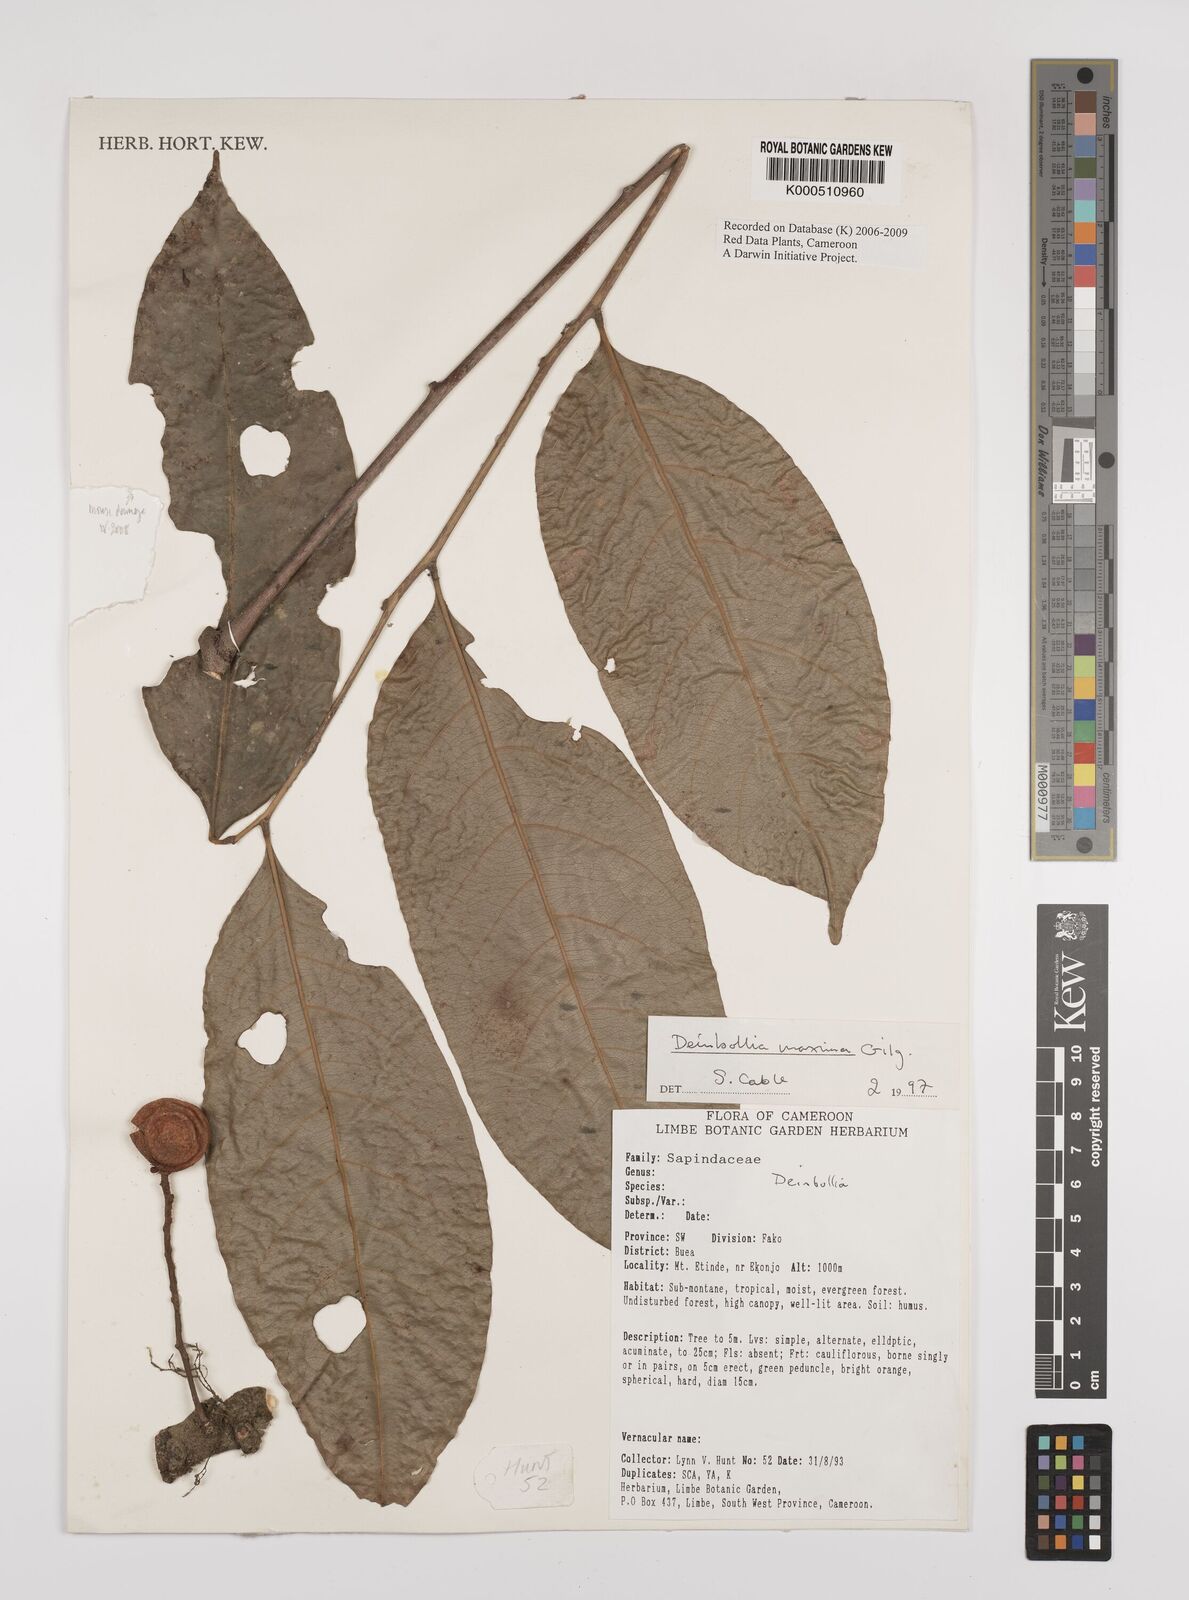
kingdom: Plantae
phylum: Tracheophyta
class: Magnoliopsida
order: Sapindales
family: Sapindaceae
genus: Deinbollia
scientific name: Deinbollia maxima
